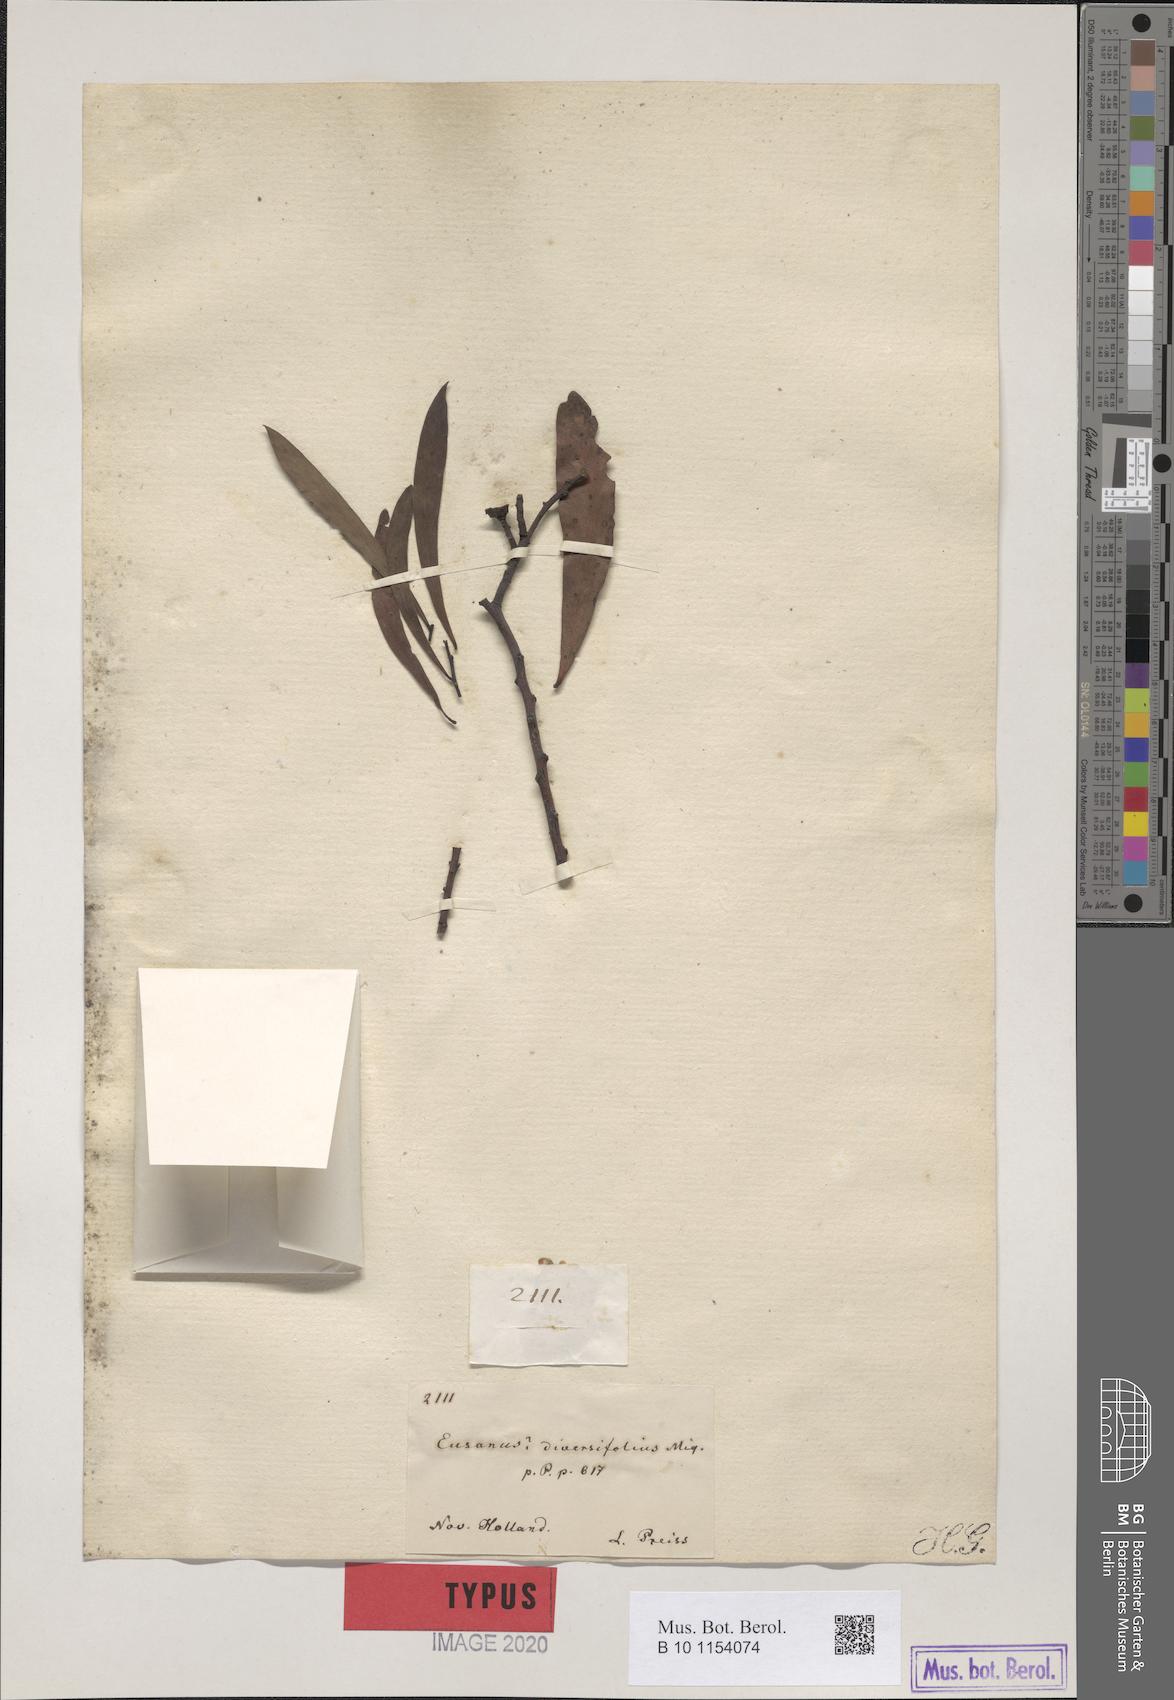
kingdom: Plantae
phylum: Tracheophyta
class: Magnoliopsida
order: Santalales
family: Santalaceae
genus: Santalum
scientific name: Santalum murrayanum
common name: Bitter quandong
